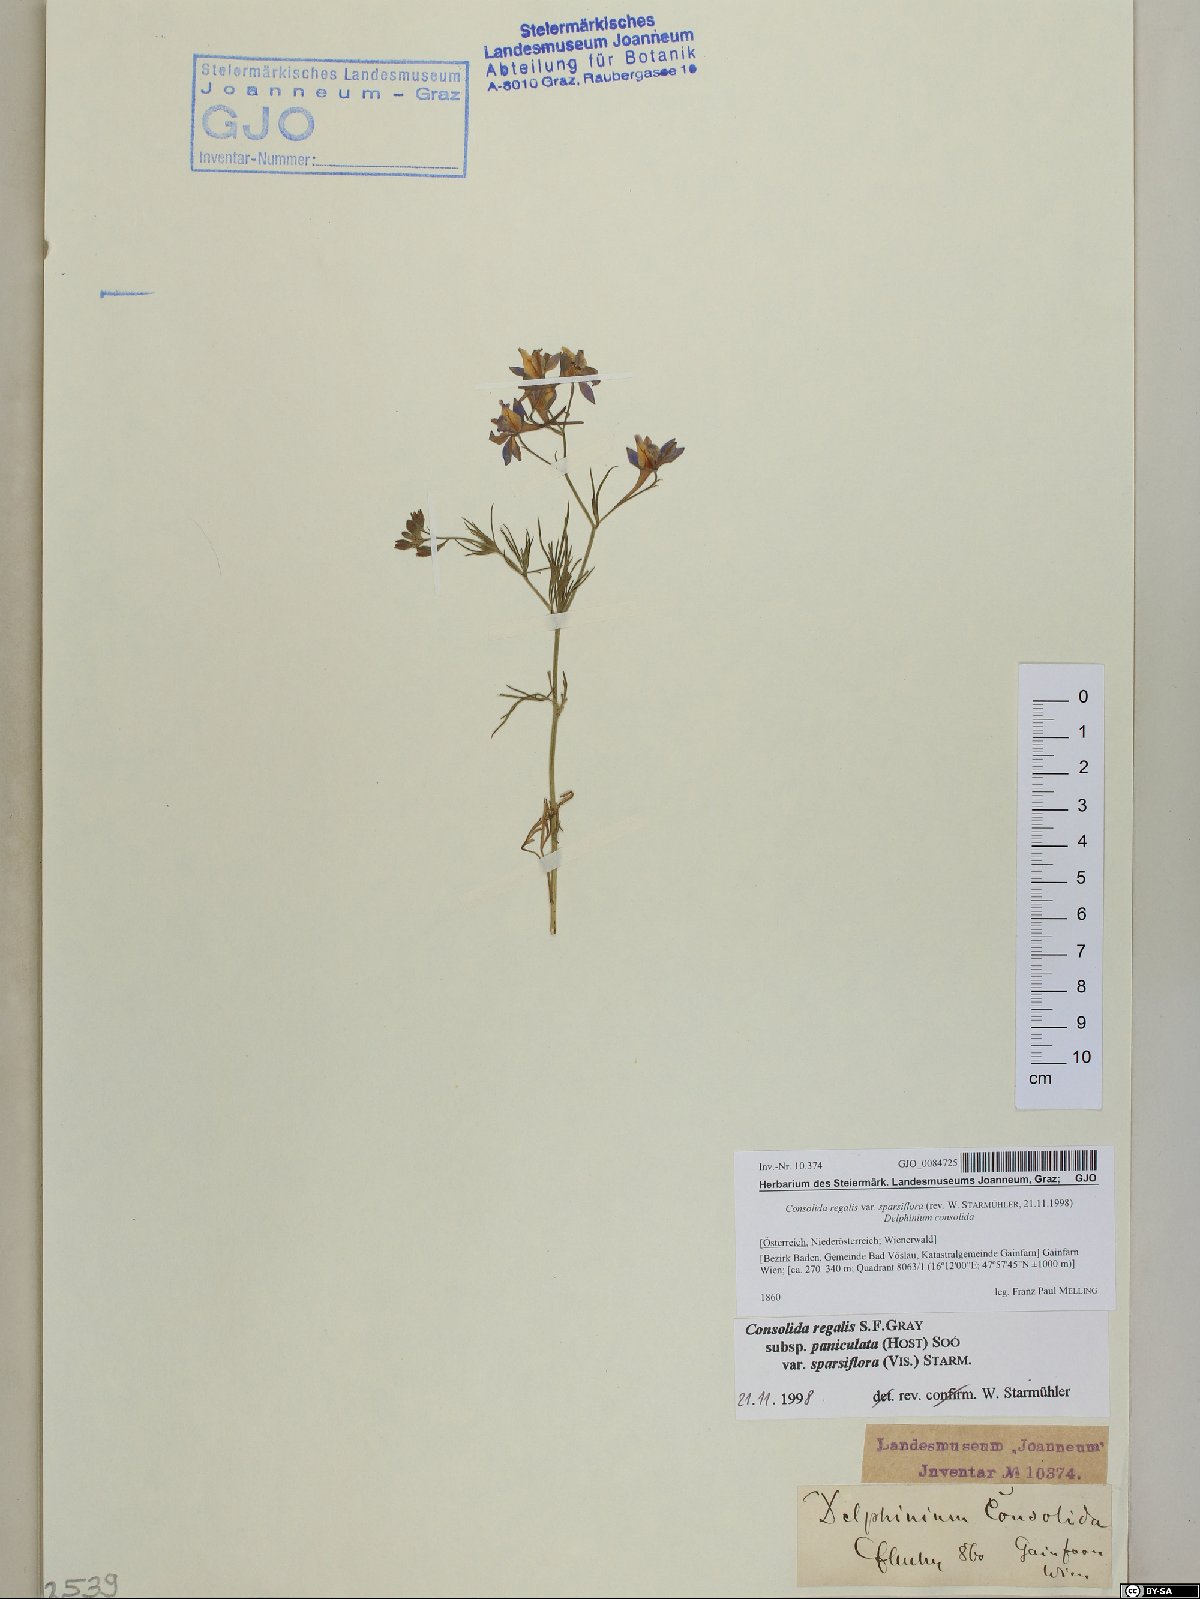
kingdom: Plantae
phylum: Tracheophyta
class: Magnoliopsida
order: Ranunculales
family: Ranunculaceae
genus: Delphinium
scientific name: Delphinium consolida
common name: Branching larkspur
